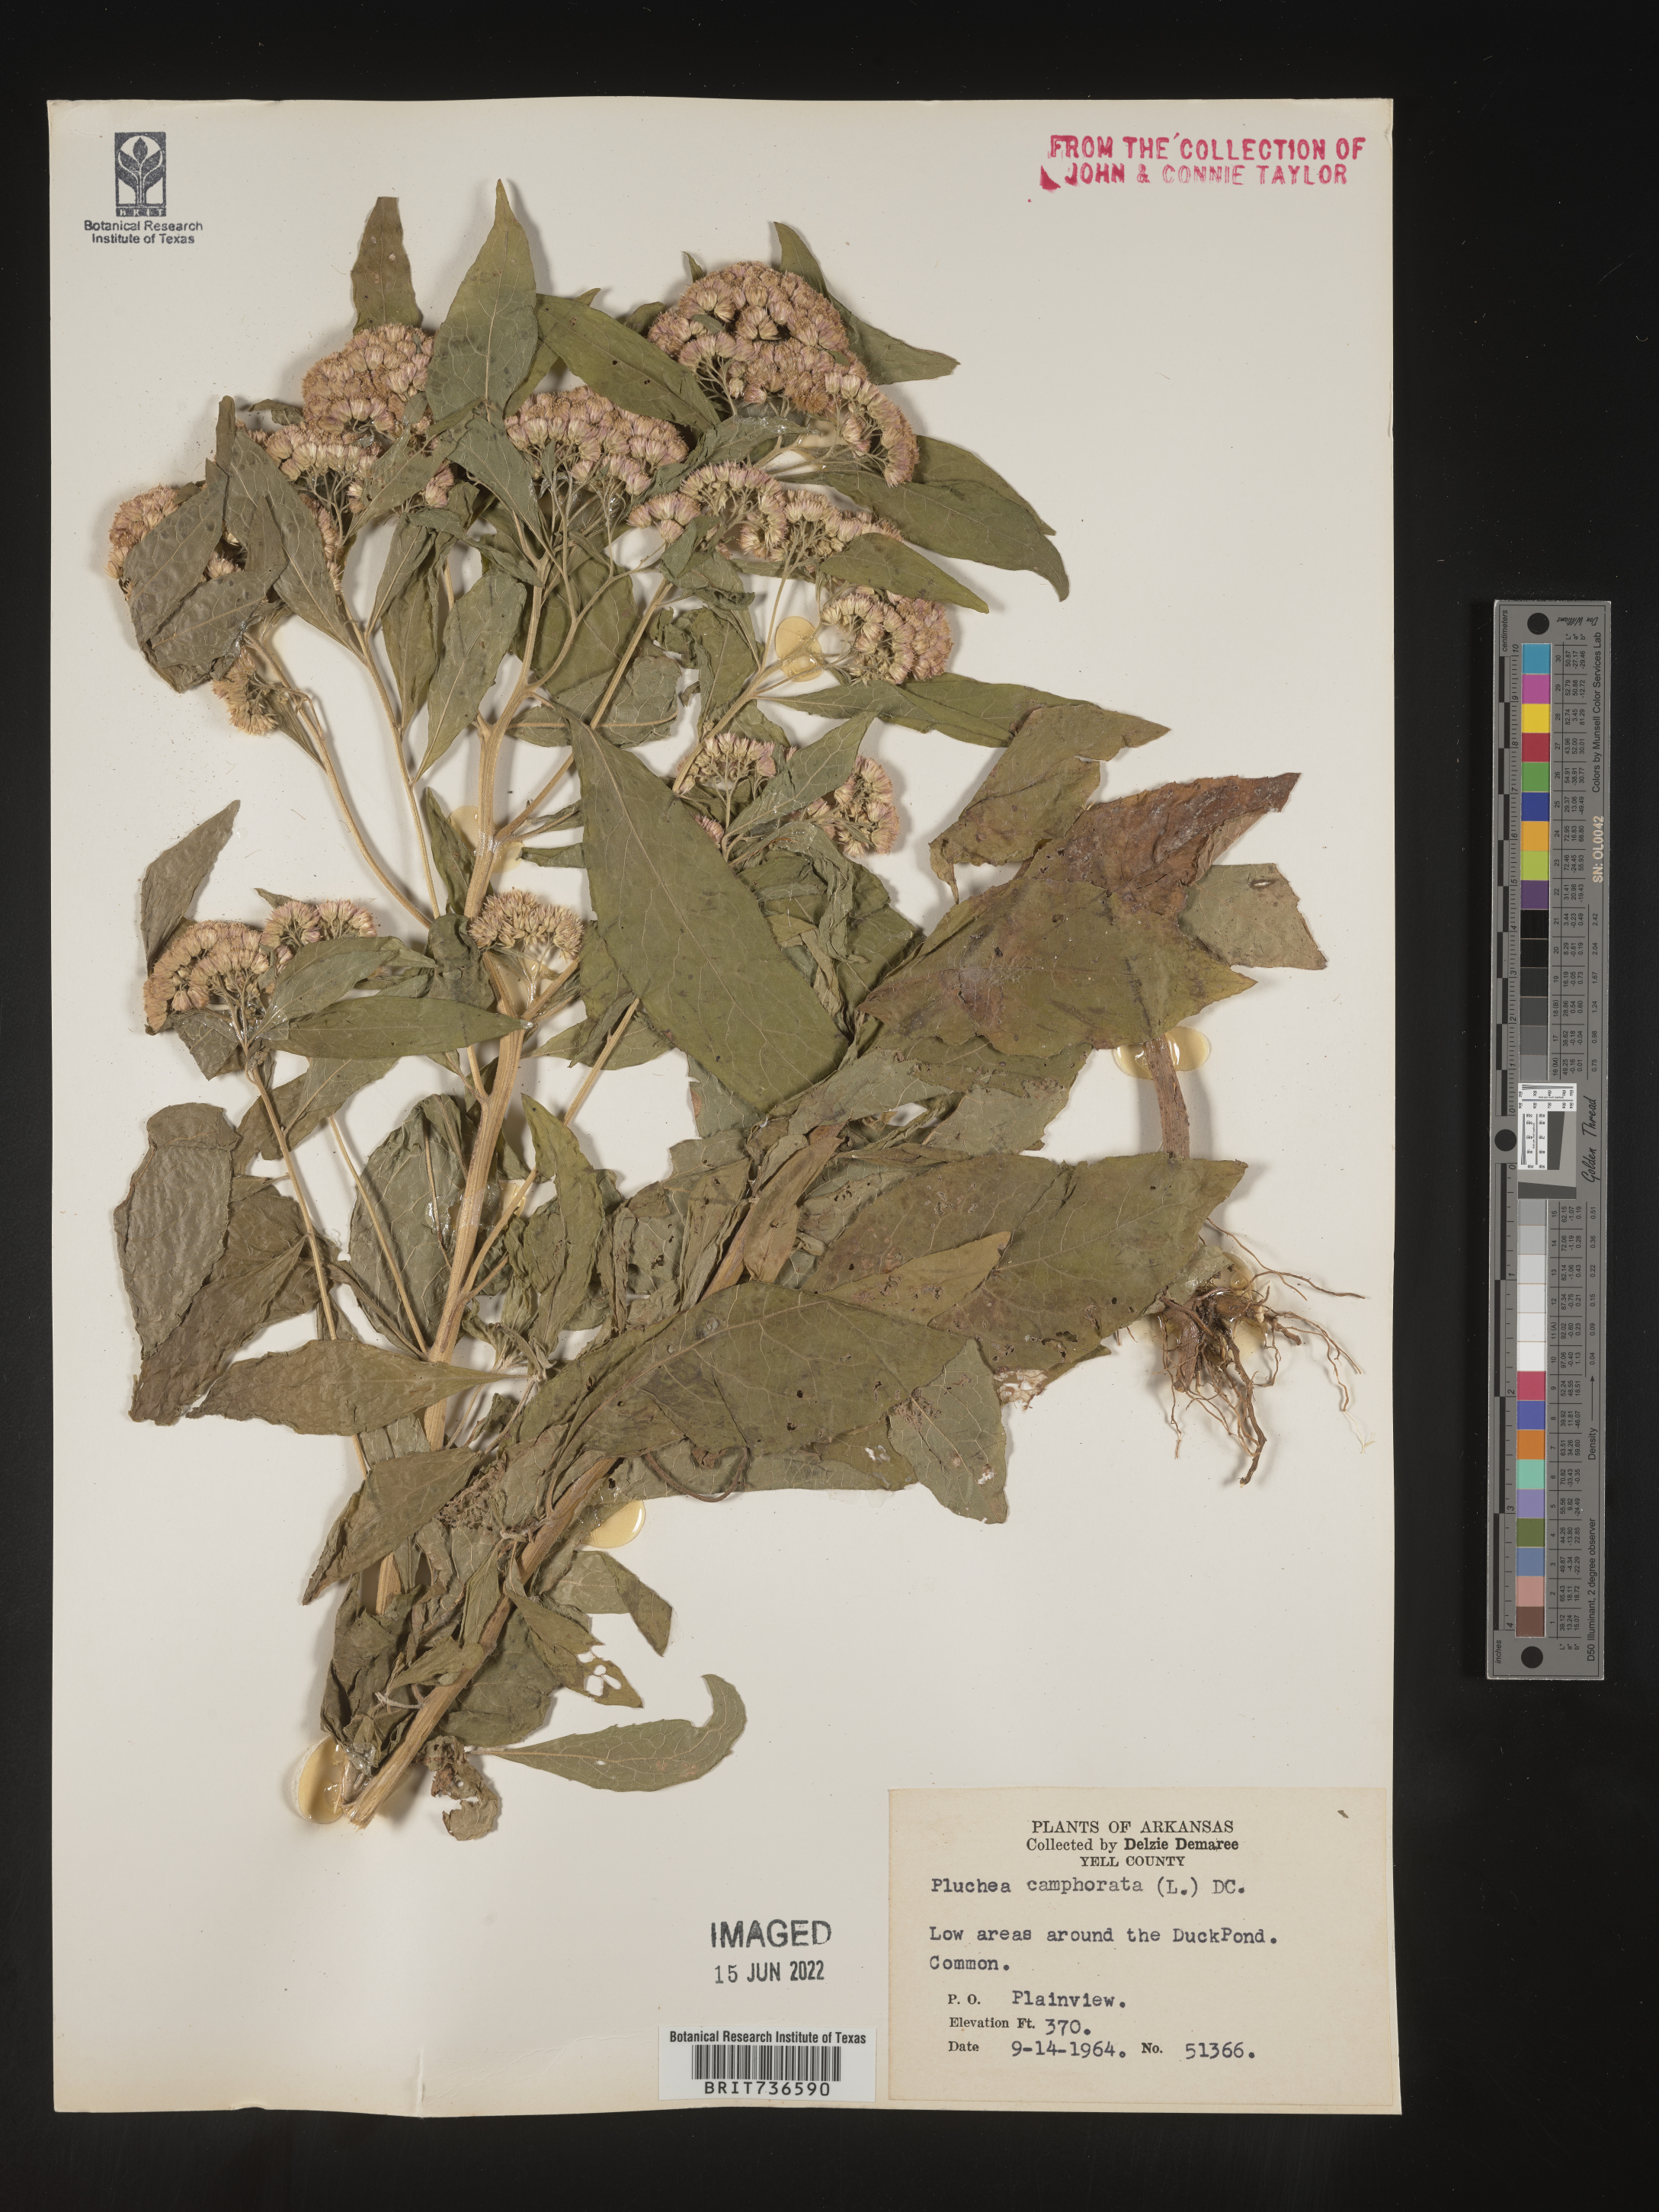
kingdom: Plantae
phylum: Tracheophyta
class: Magnoliopsida
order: Asterales
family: Asteraceae
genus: Pluchea
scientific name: Pluchea camphorata
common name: Camphor pluchea
